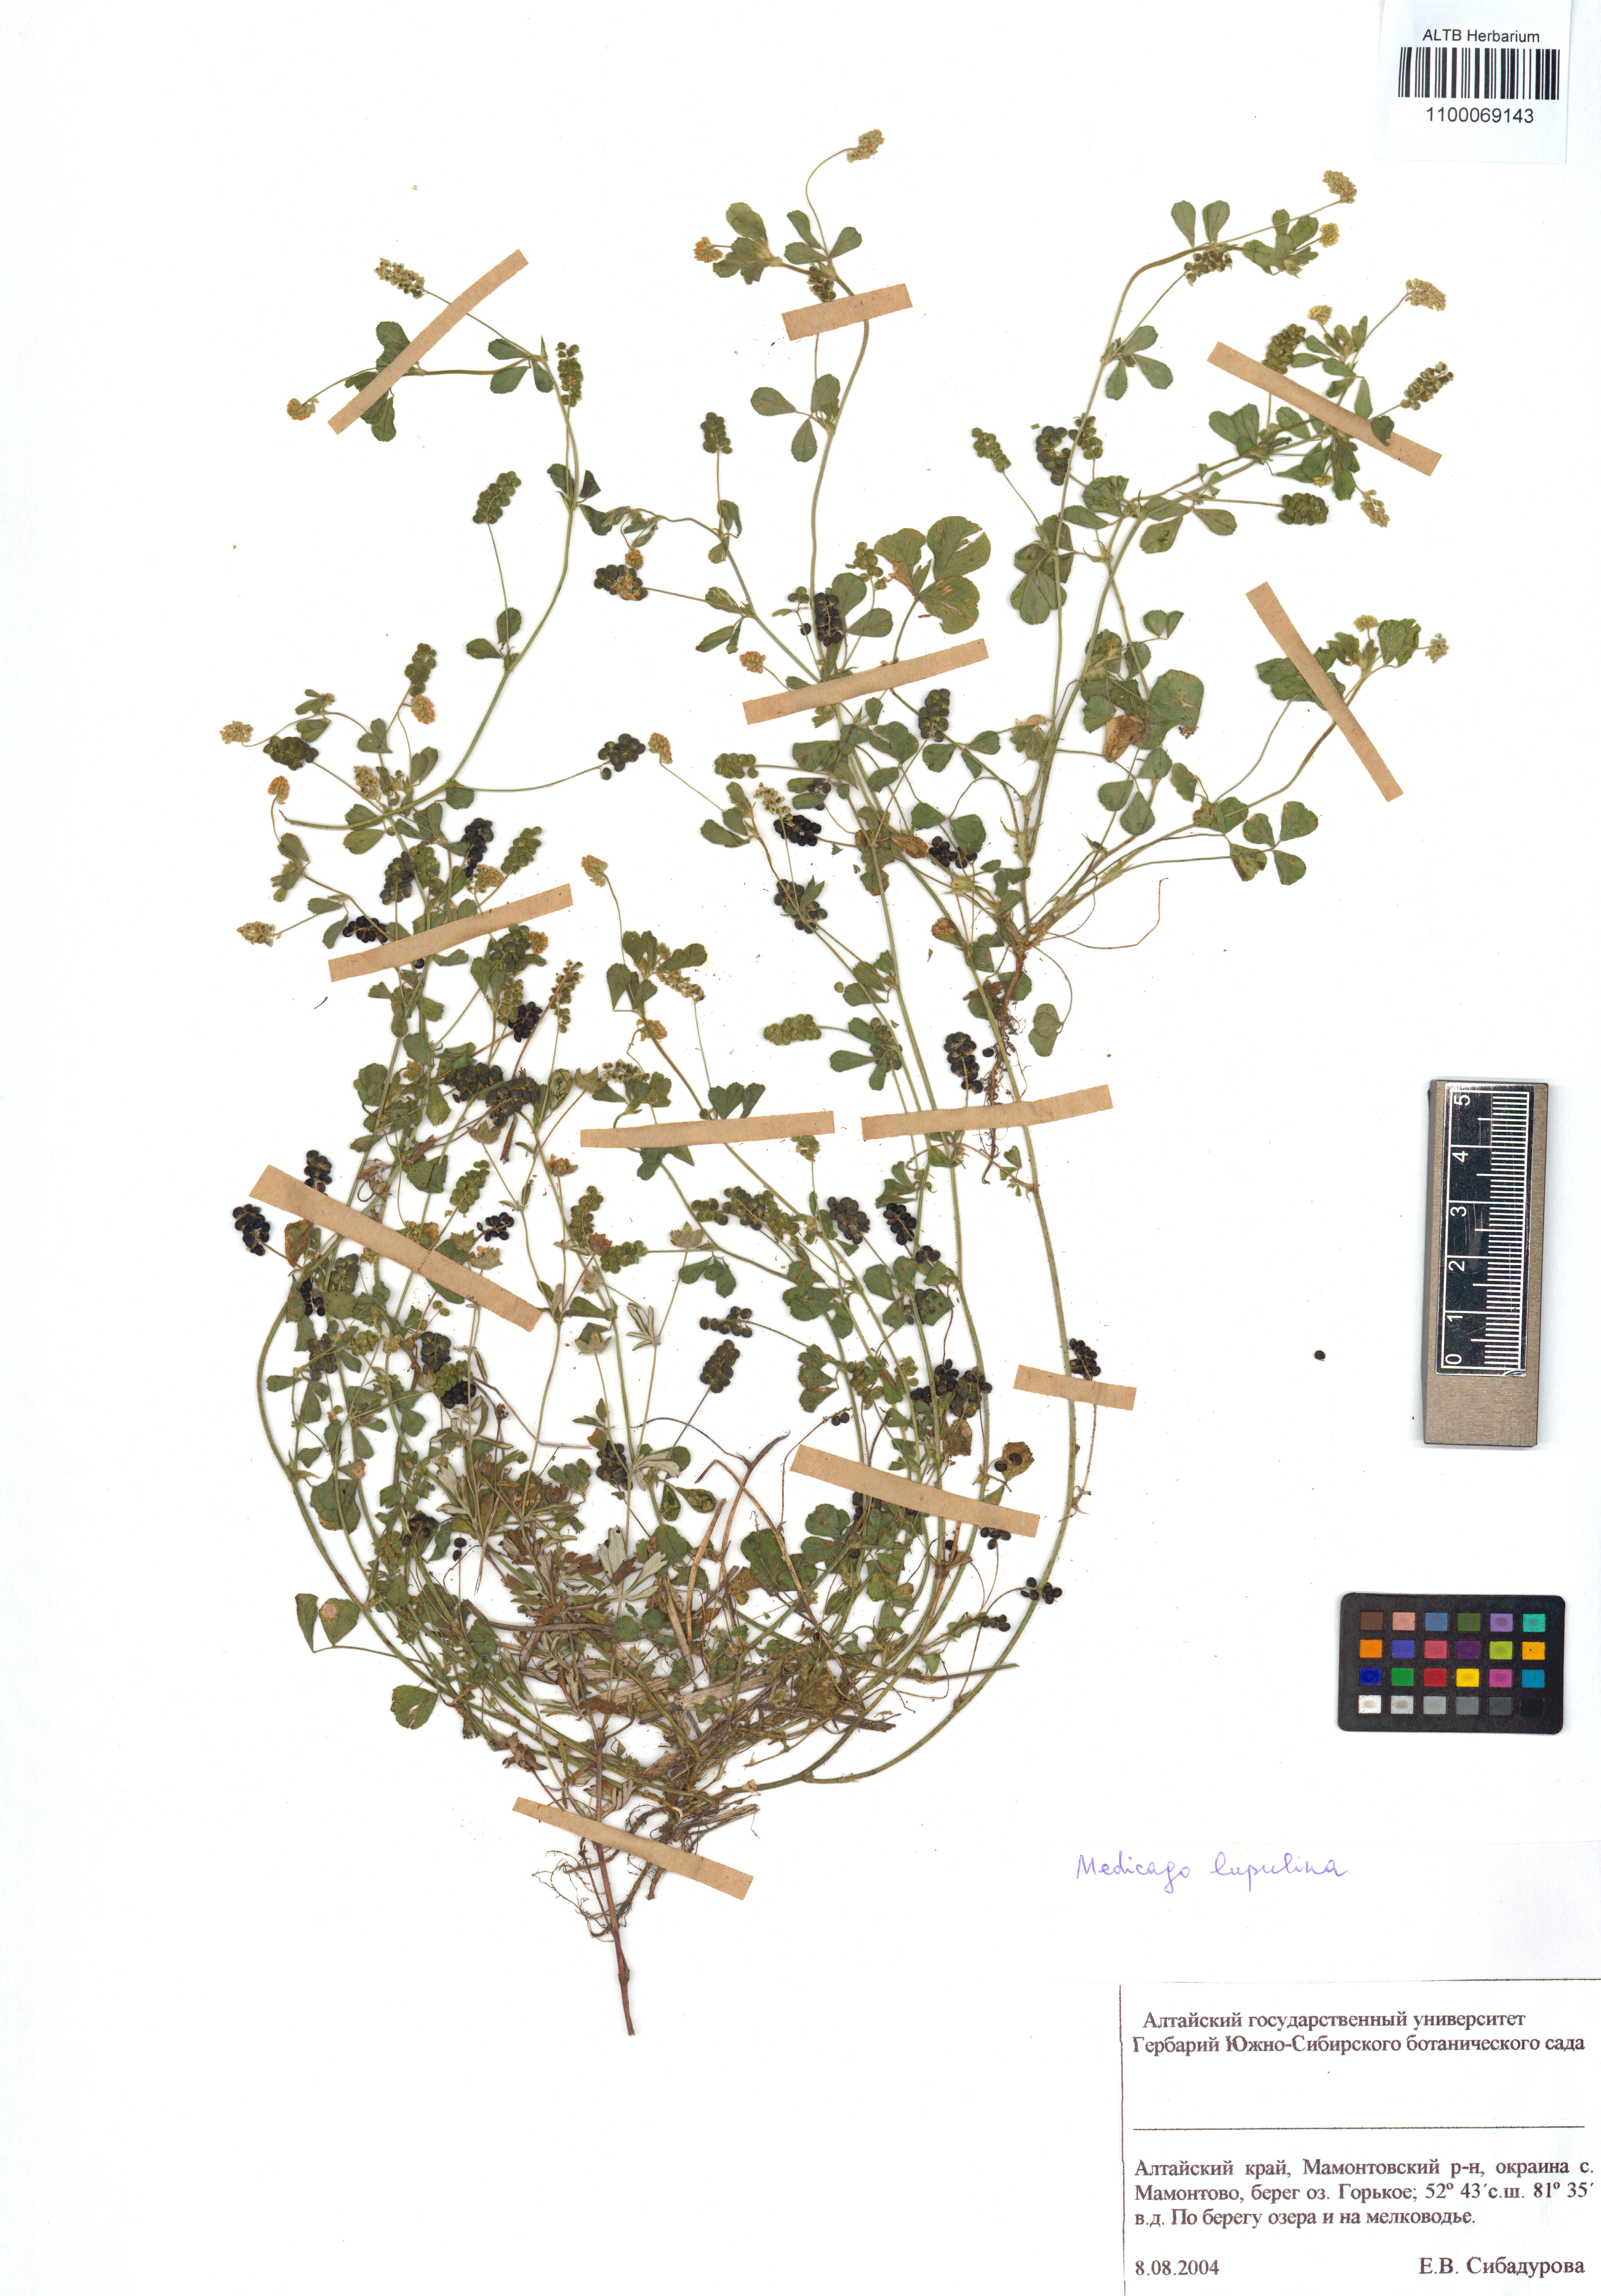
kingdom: Plantae
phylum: Tracheophyta
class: Magnoliopsida
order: Fabales
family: Fabaceae
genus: Medicago
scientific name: Medicago lupulina
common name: Black medick
